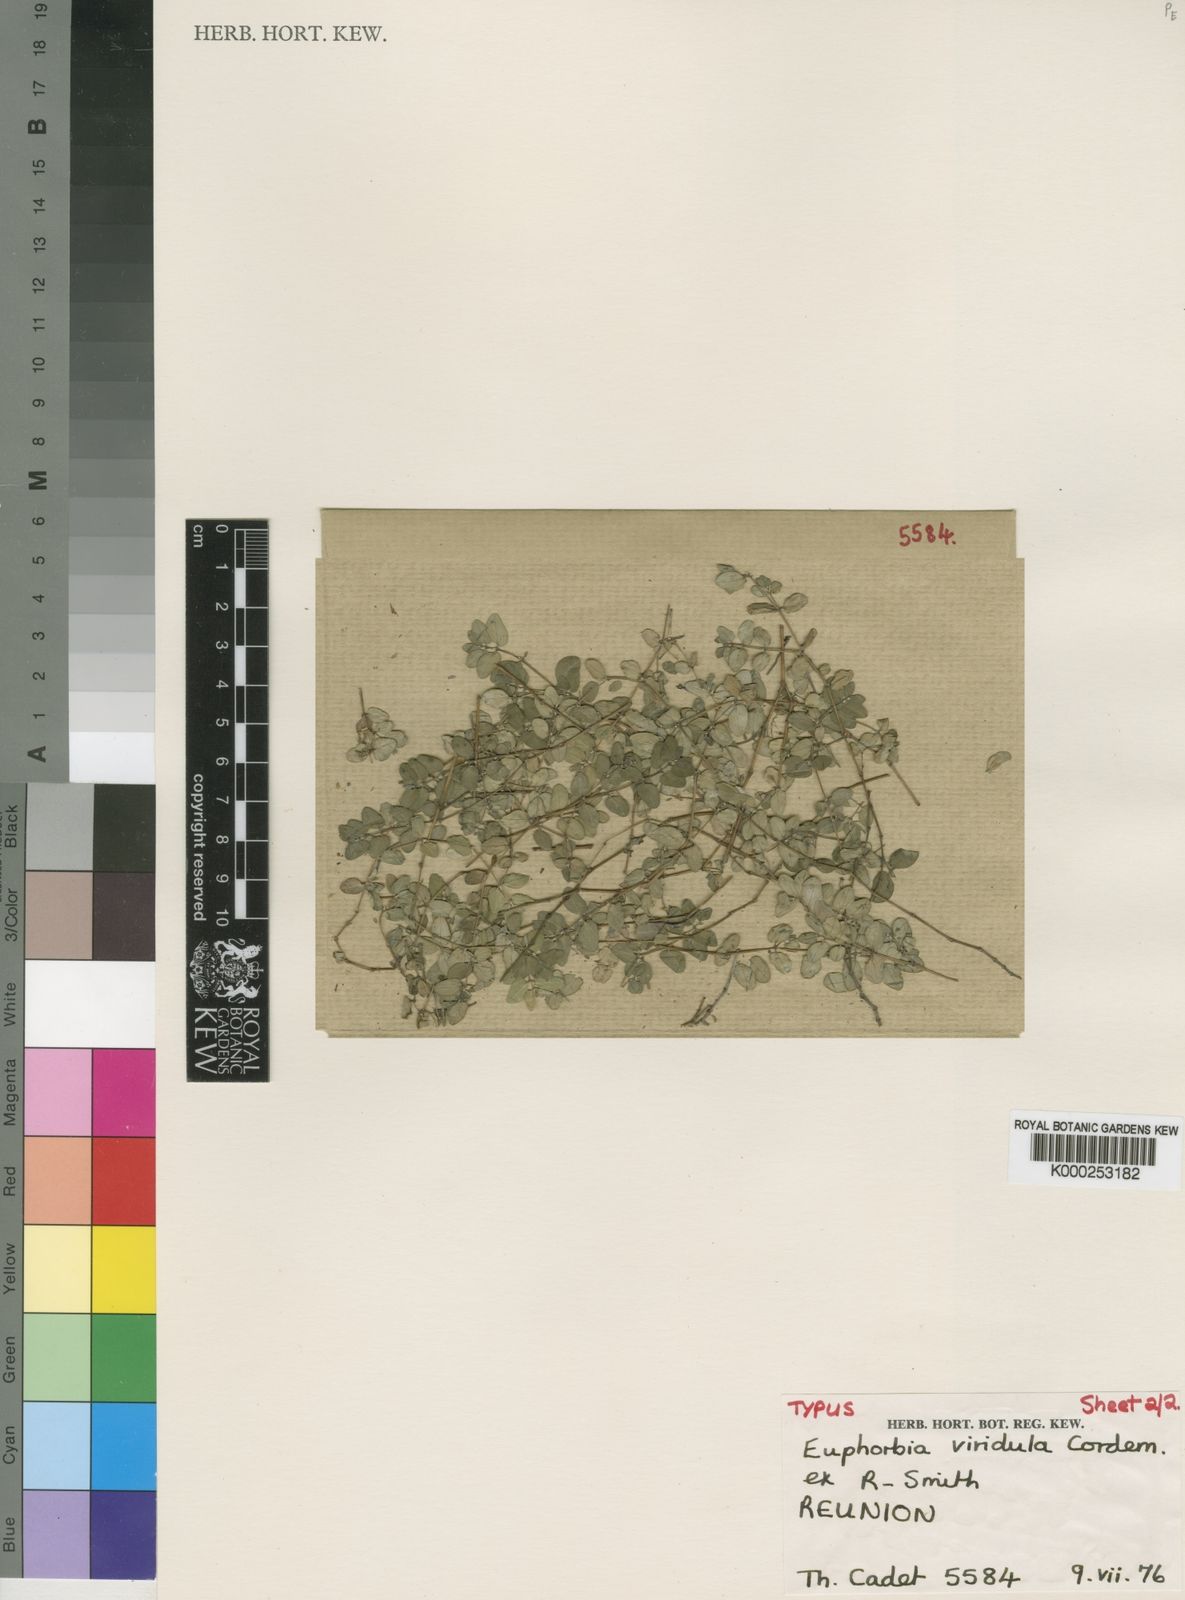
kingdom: Plantae
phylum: Tracheophyta
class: Magnoliopsida
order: Malpighiales
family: Euphorbiaceae
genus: Euphorbia
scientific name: Euphorbia viridula
